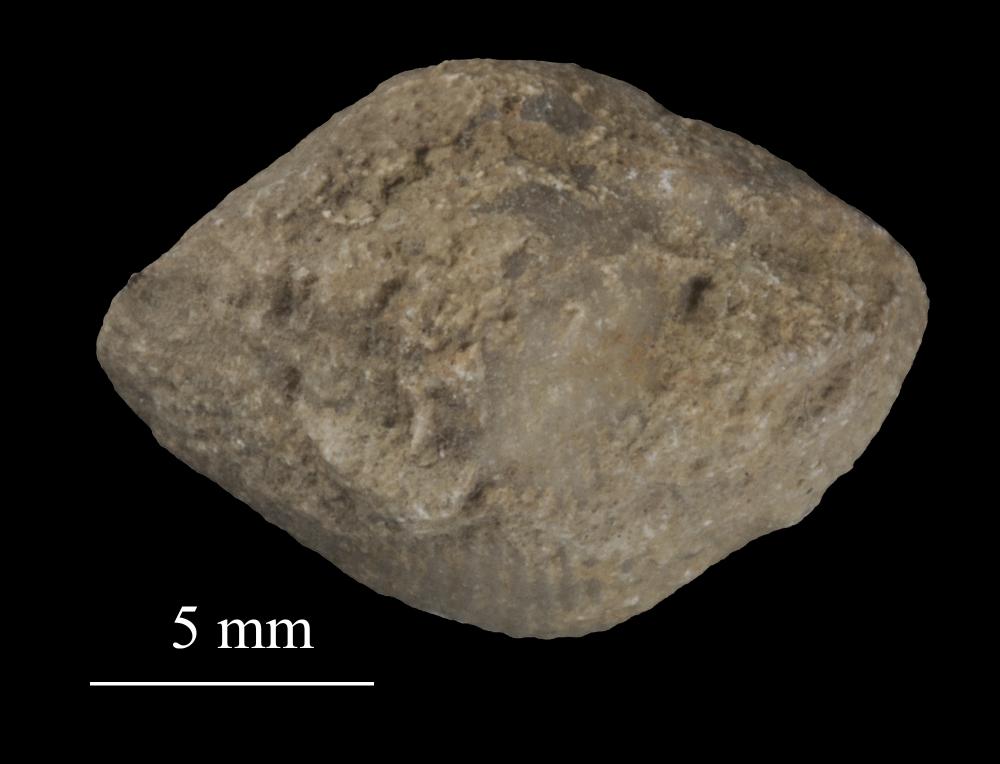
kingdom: Animalia
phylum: Brachiopoda
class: Rhynchonellata
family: Triplesiidae
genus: Cliftonia
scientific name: Cliftonia
